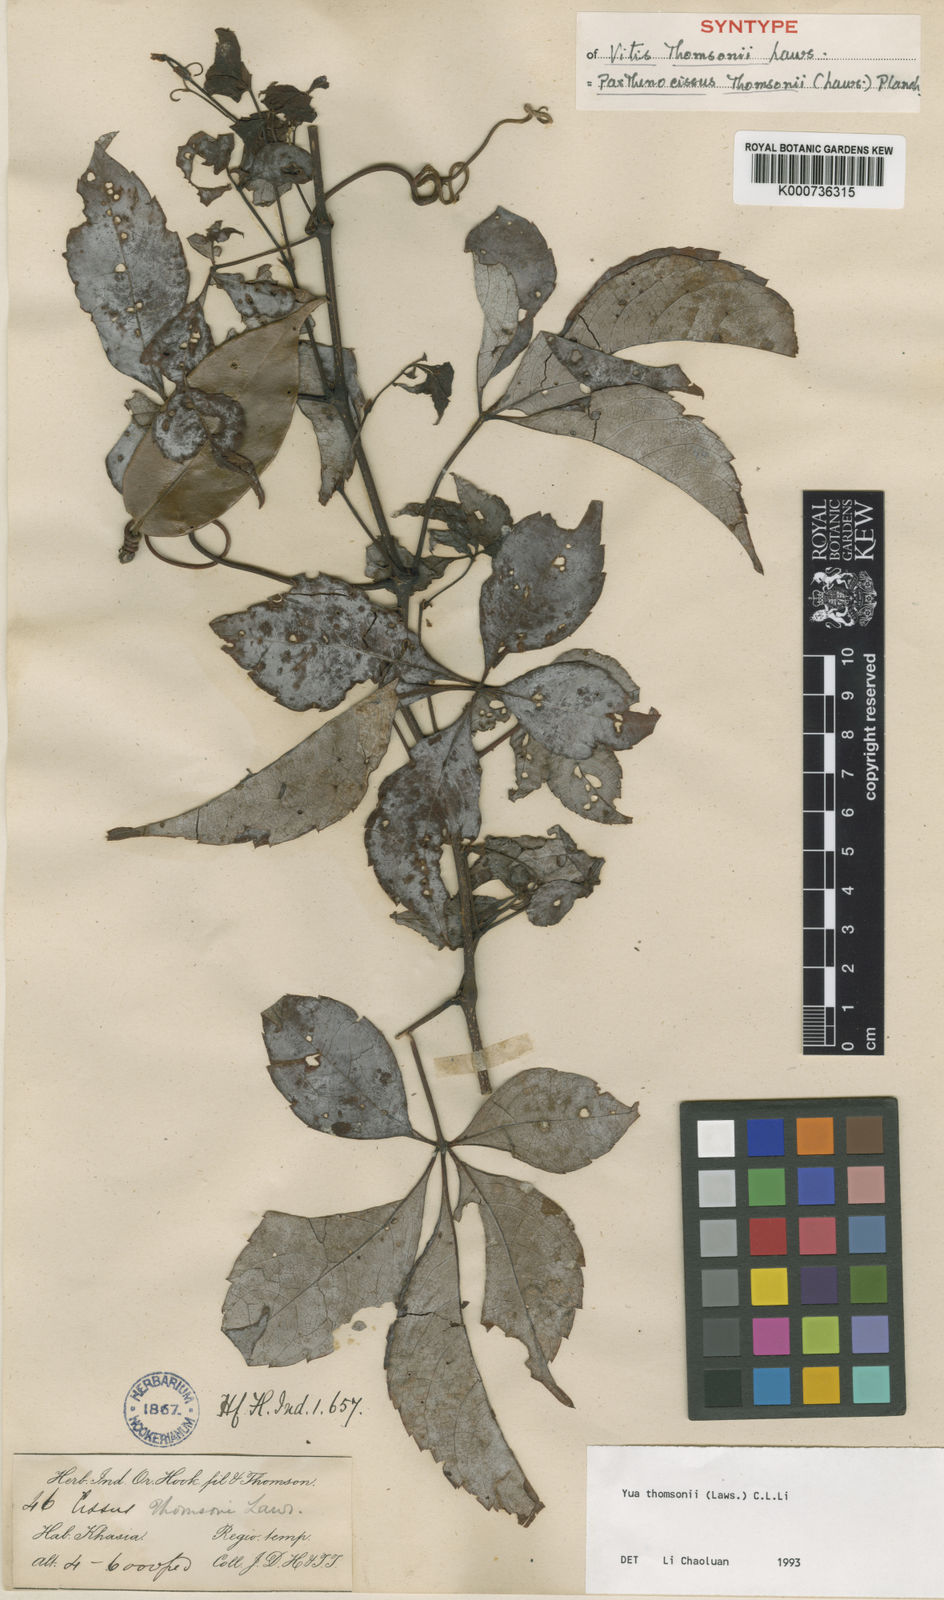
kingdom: Plantae
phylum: Tracheophyta
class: Magnoliopsida
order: Vitales
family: Vitaceae
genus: Yua
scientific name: Yua thomsonii
